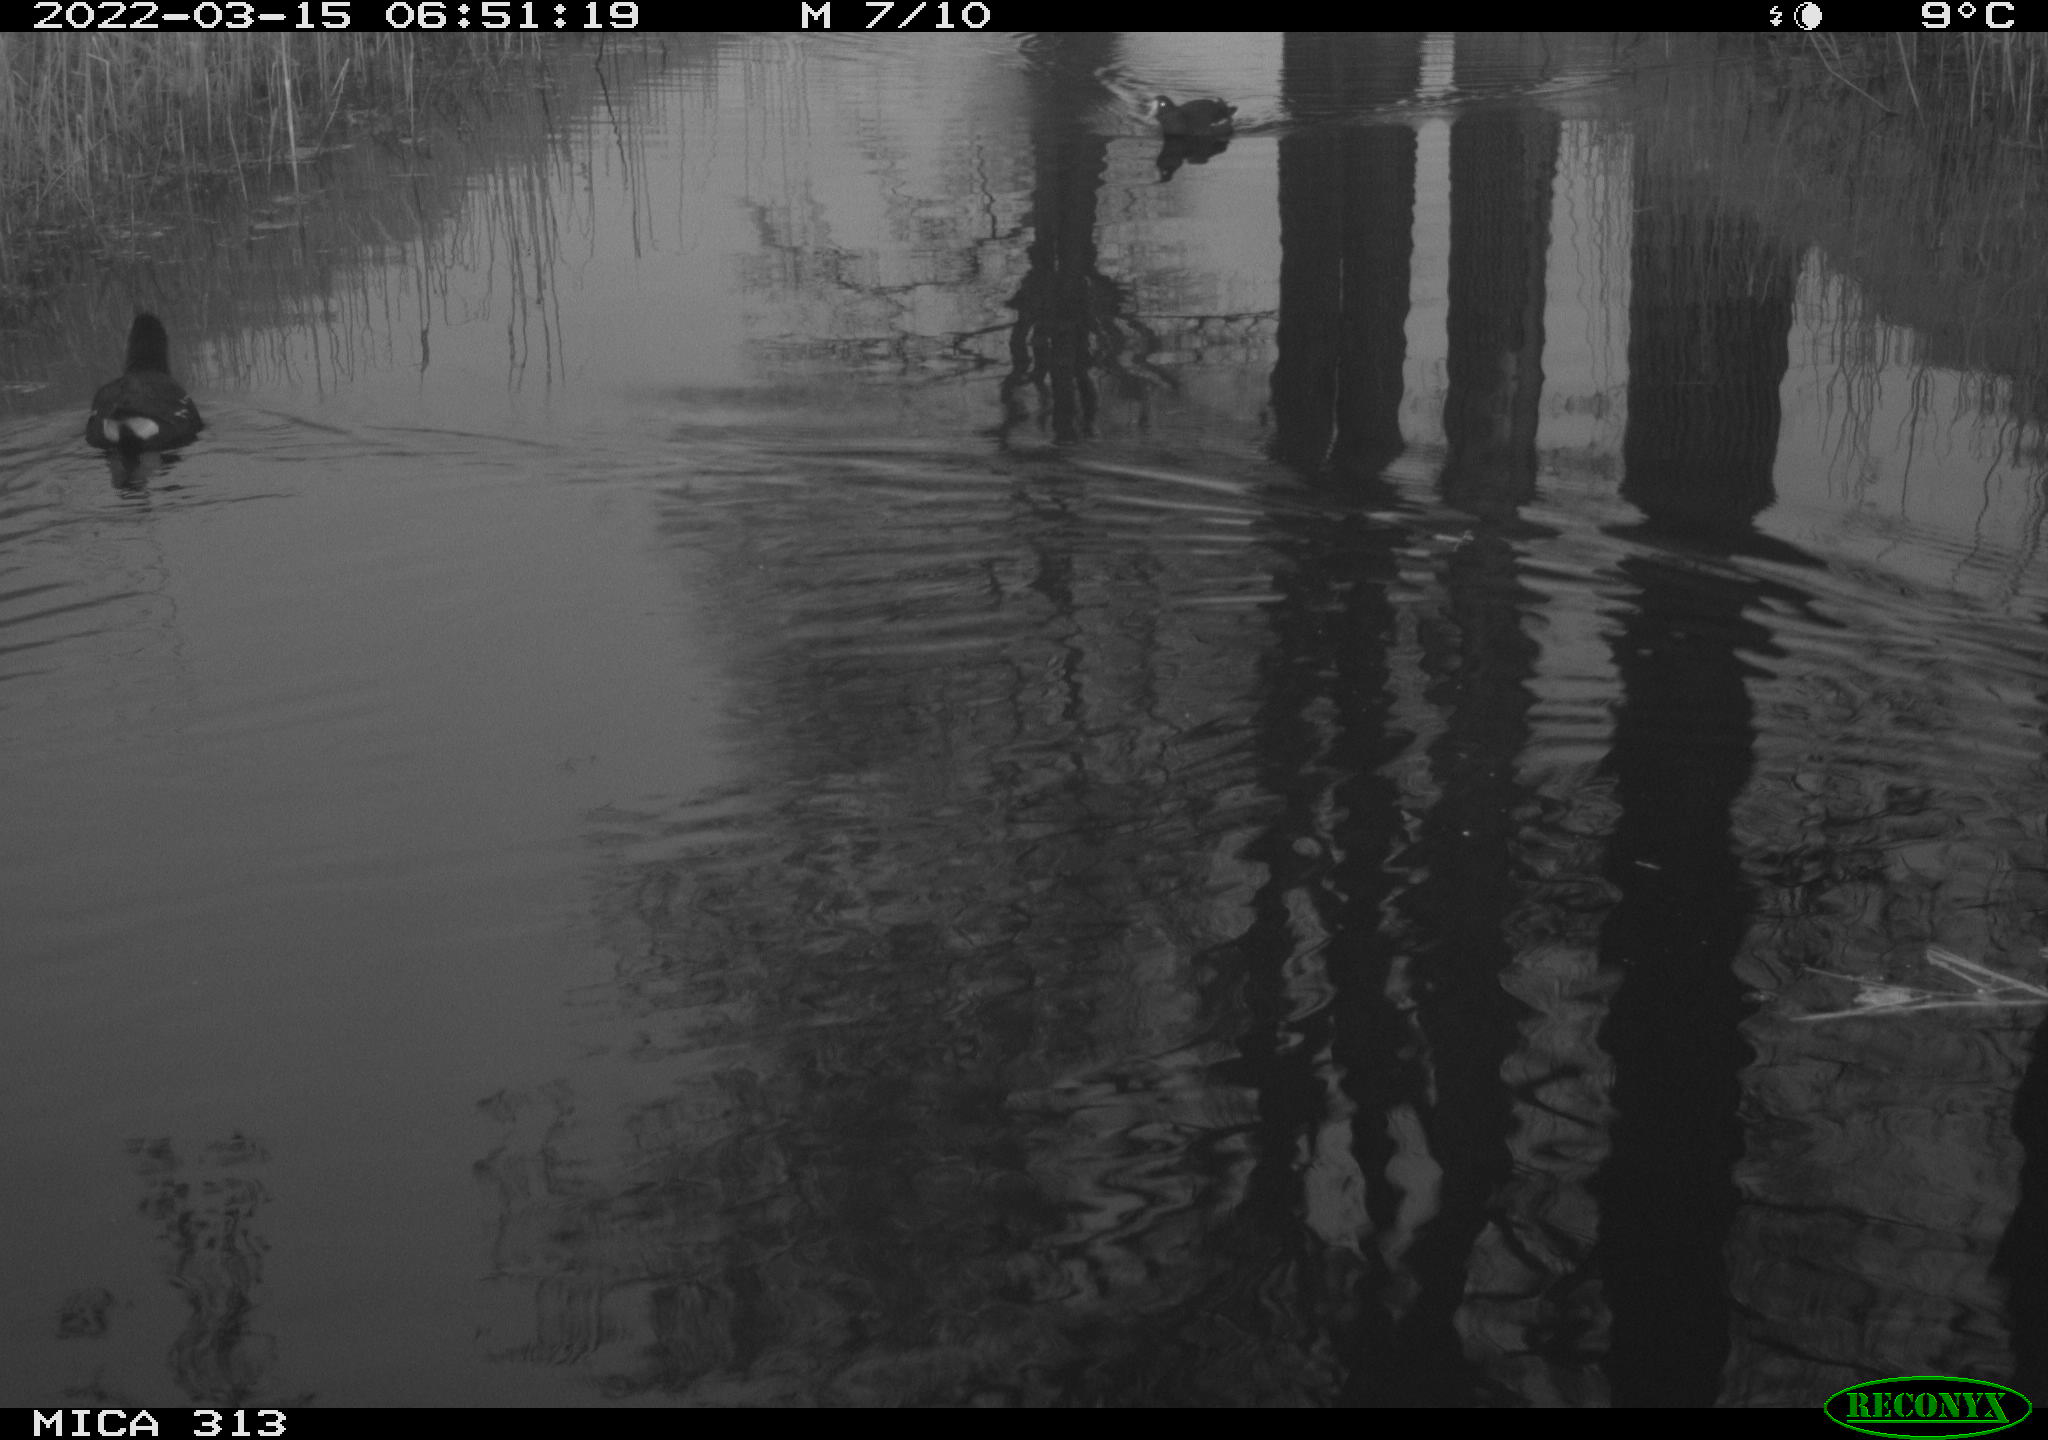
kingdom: Animalia
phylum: Chordata
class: Aves
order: Gruiformes
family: Rallidae
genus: Gallinula
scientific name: Gallinula chloropus
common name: Common moorhen
